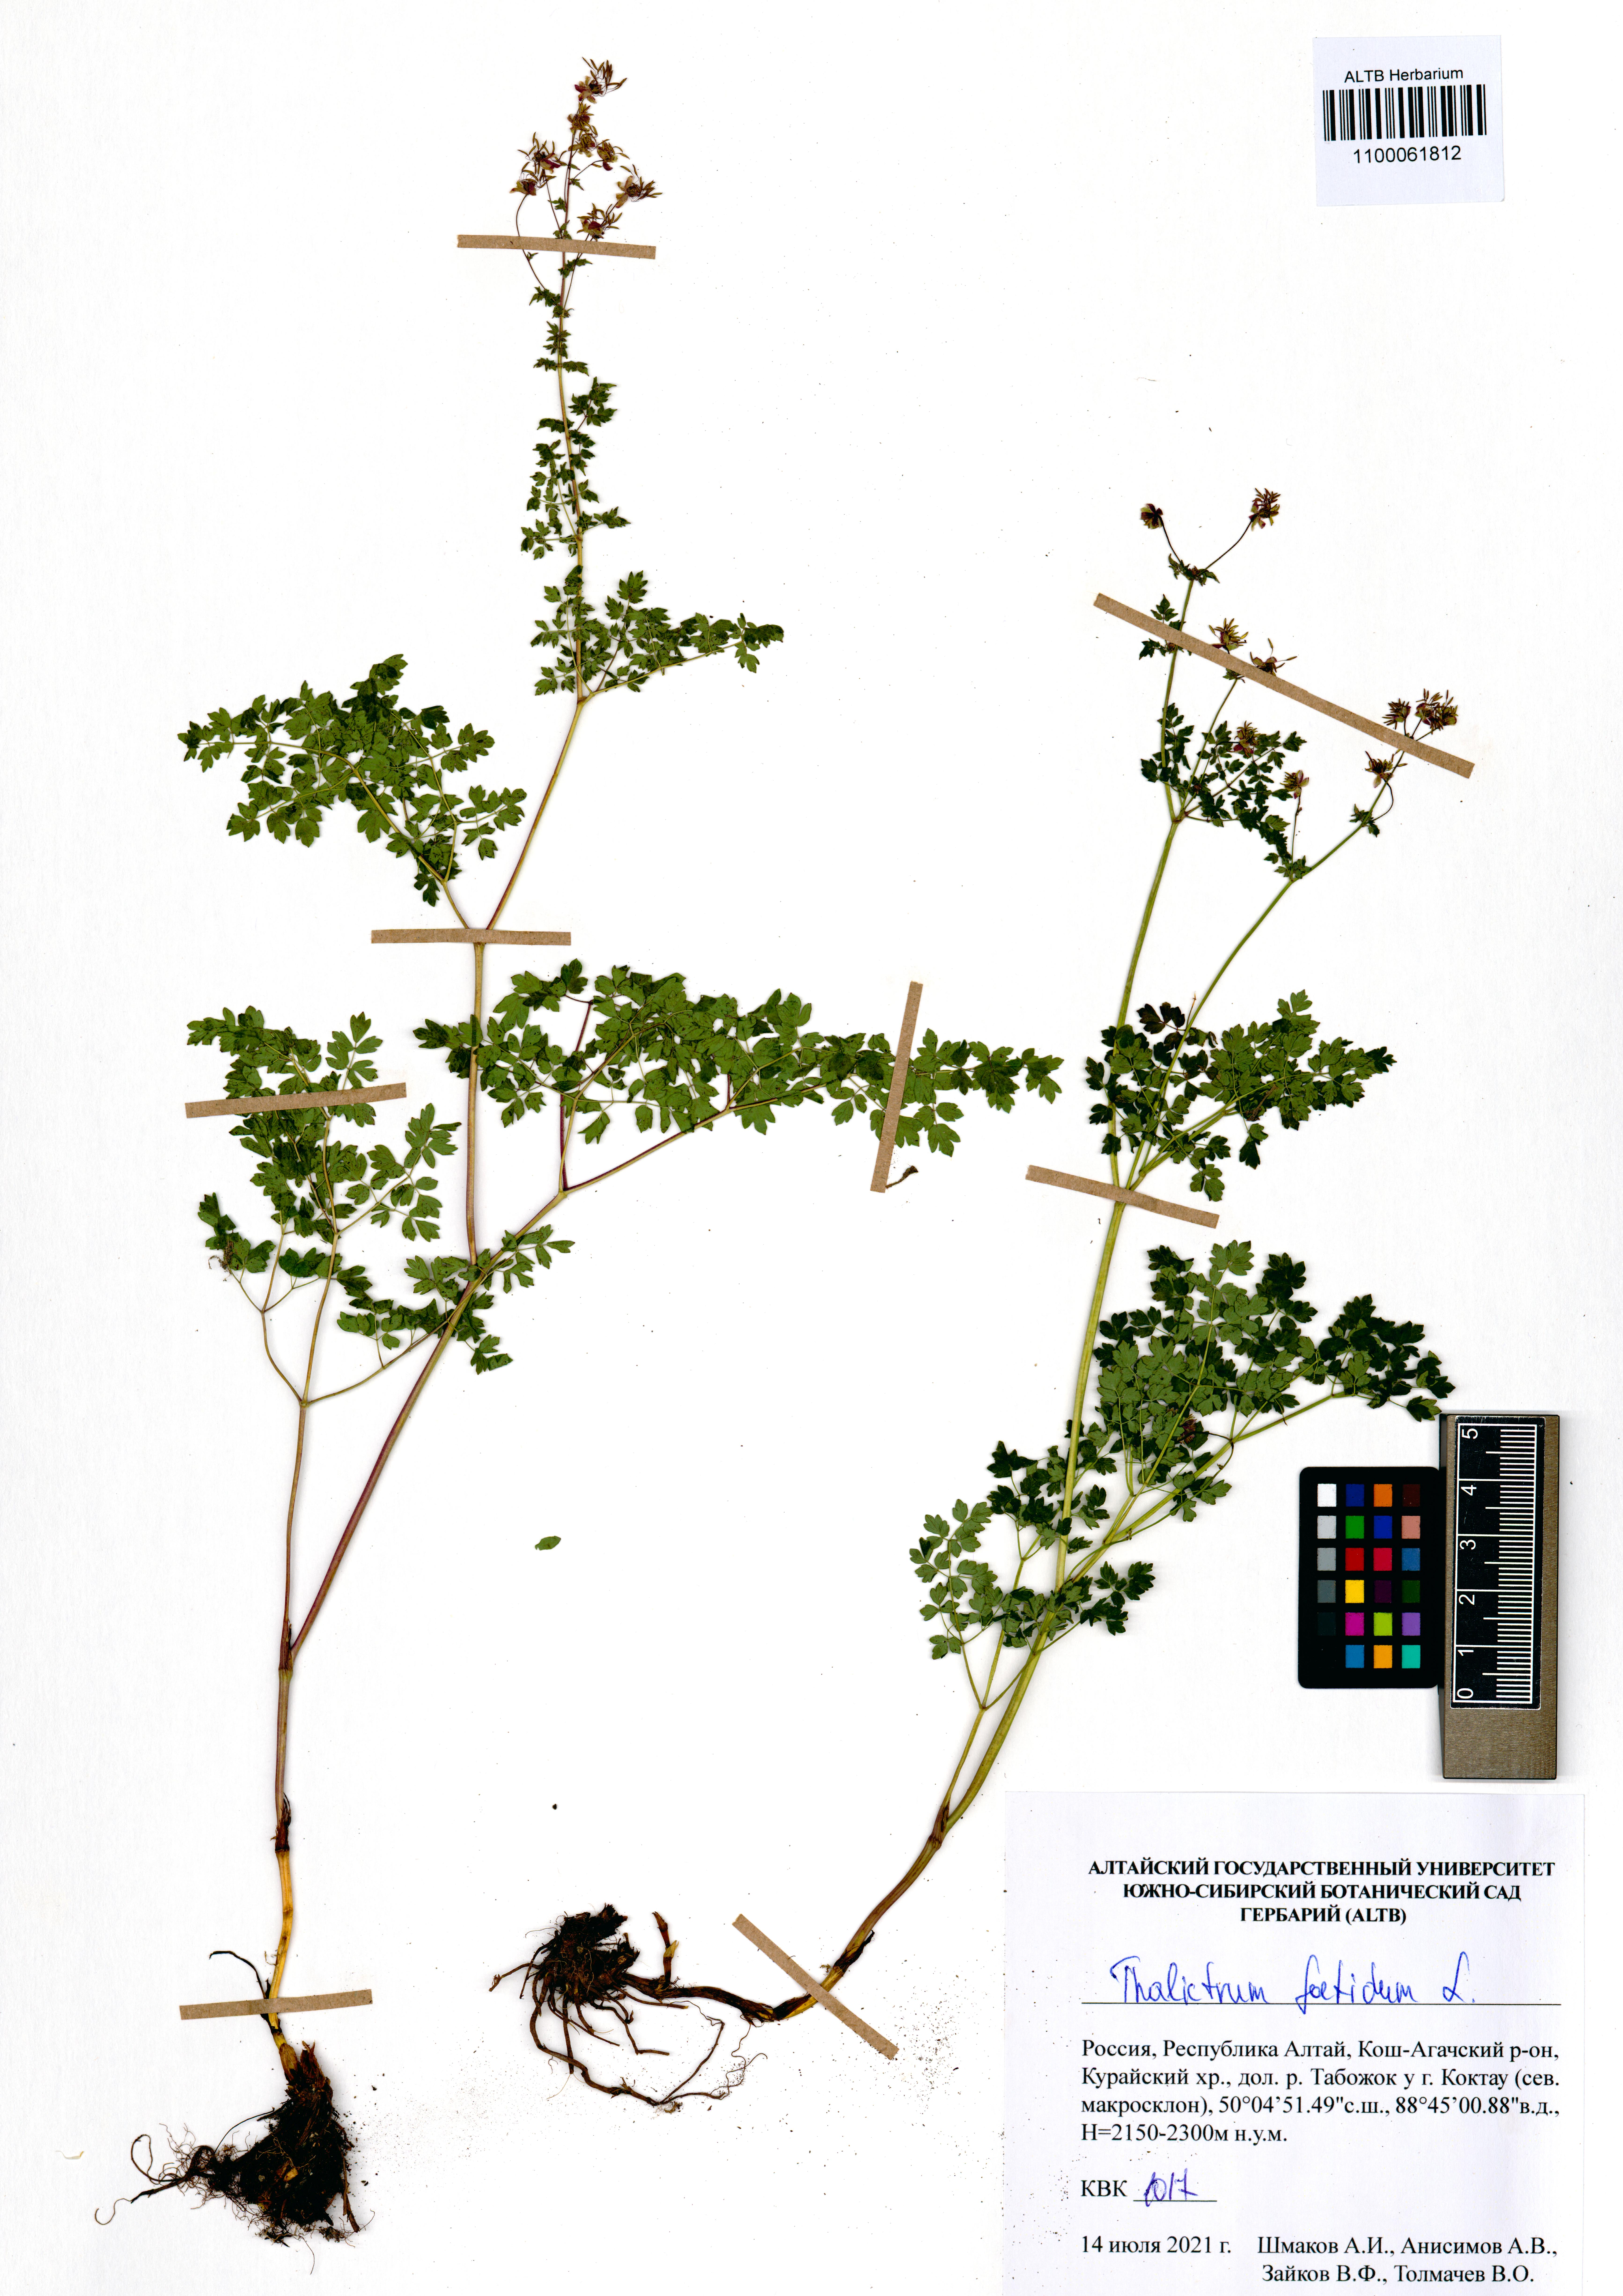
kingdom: Plantae
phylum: Tracheophyta
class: Magnoliopsida
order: Ranunculales
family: Ranunculaceae
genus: Thalictrum
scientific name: Thalictrum foetidum
